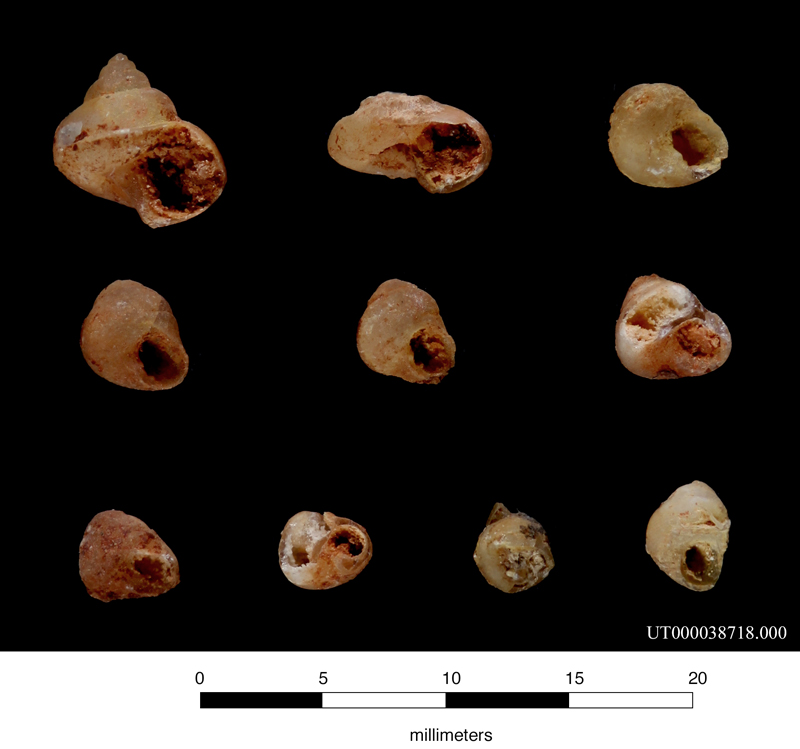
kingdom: Animalia
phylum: Mollusca
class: Gastropoda
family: Nerineidae
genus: Nerinoides
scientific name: Nerinoides
